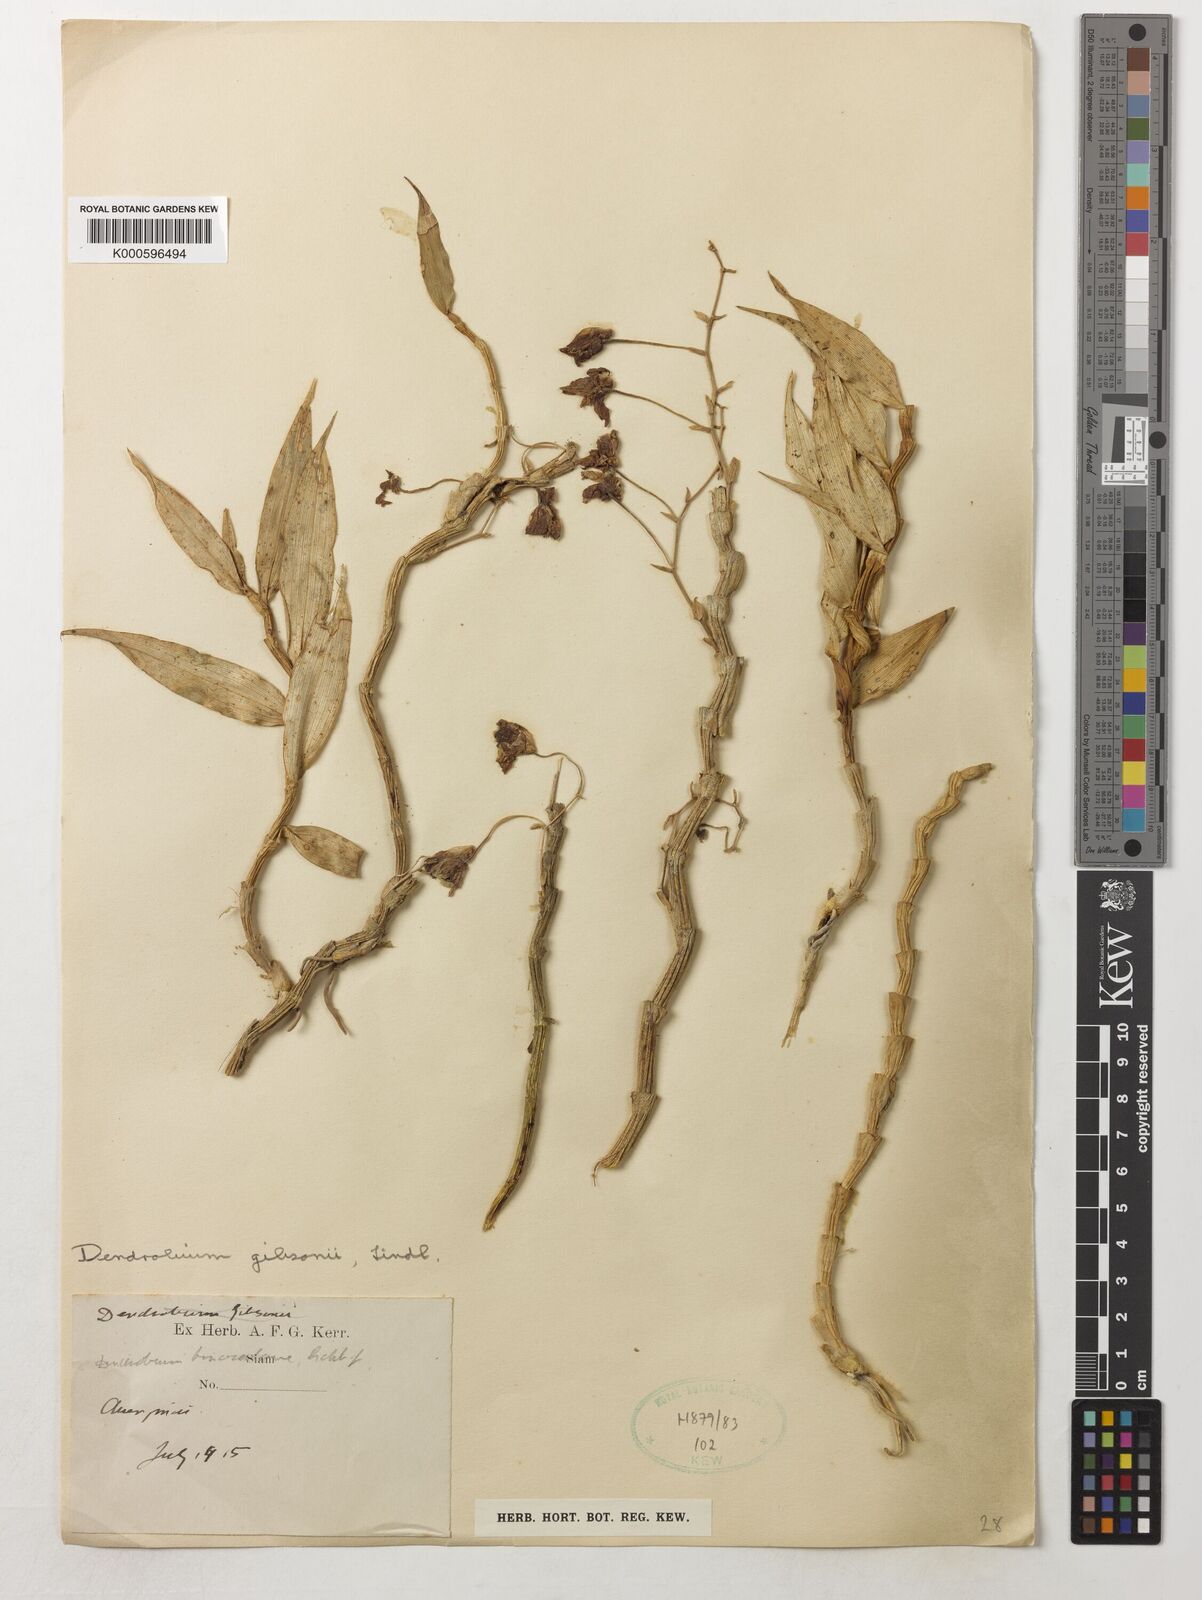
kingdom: Plantae
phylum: Tracheophyta
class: Liliopsida
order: Asparagales
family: Orchidaceae
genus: Dendrobium
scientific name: Dendrobium
